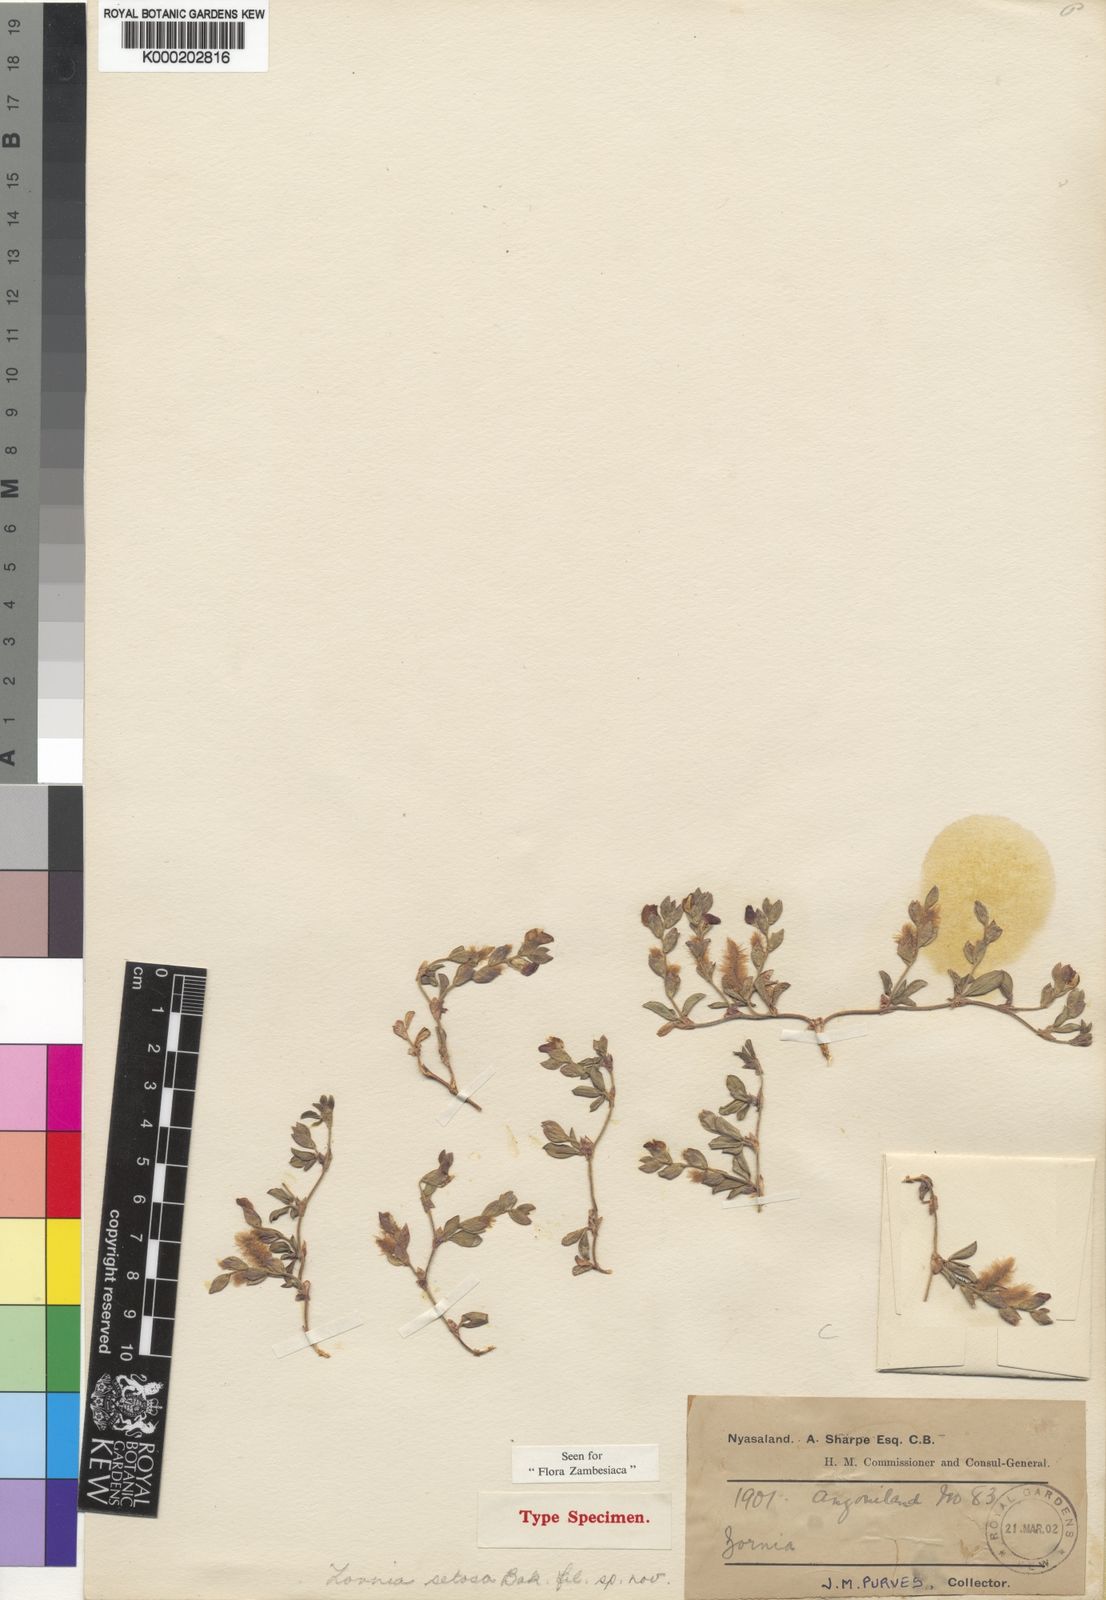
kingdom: Plantae
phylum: Tracheophyta
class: Magnoliopsida
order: Fabales
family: Fabaceae
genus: Zornia
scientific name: Zornia setosa
